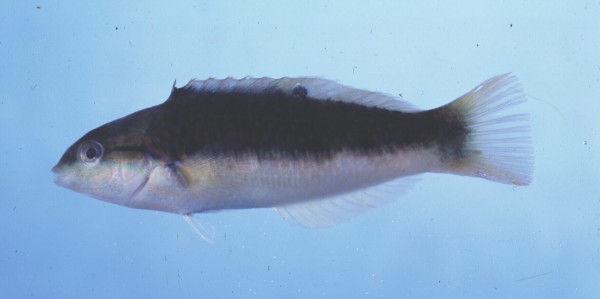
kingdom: Animalia
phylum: Chordata
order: Perciformes
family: Labridae
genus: Thalassoma
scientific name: Thalassoma genivittatum
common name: Red-cheek wrasse
